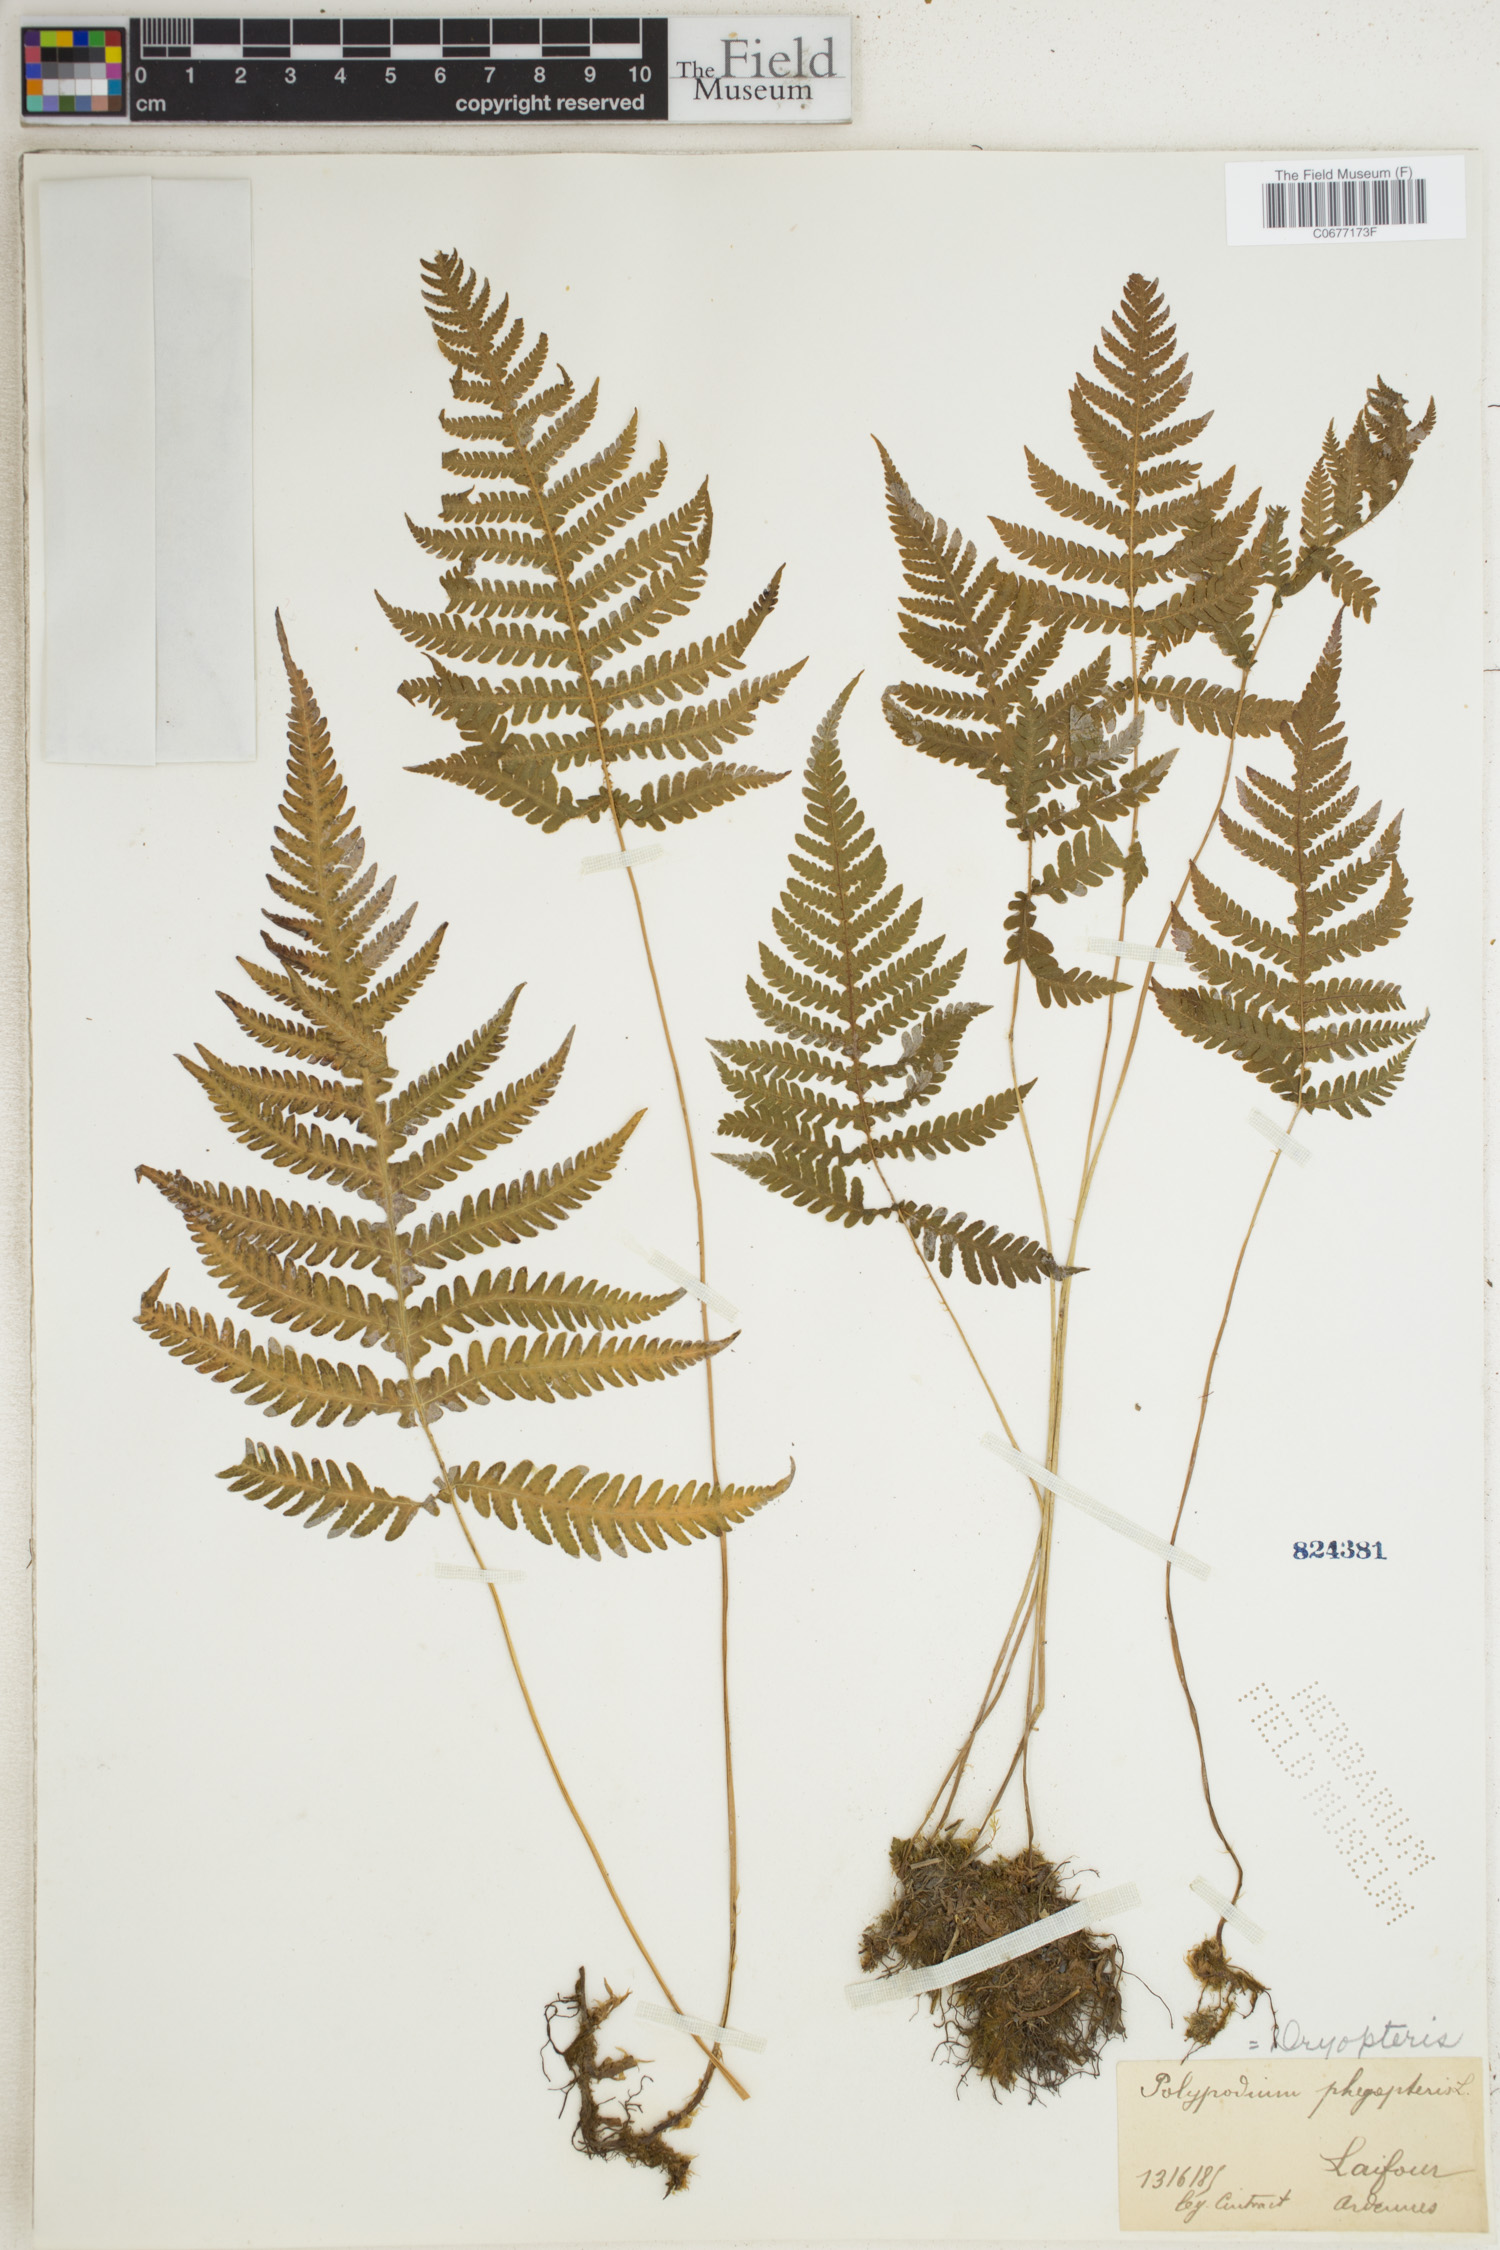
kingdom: Plantae
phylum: Tracheophyta
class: Polypodiopsida
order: Polypodiales
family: Thelypteridaceae
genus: Phegopteris
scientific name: Phegopteris connectilis
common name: Beech fern
